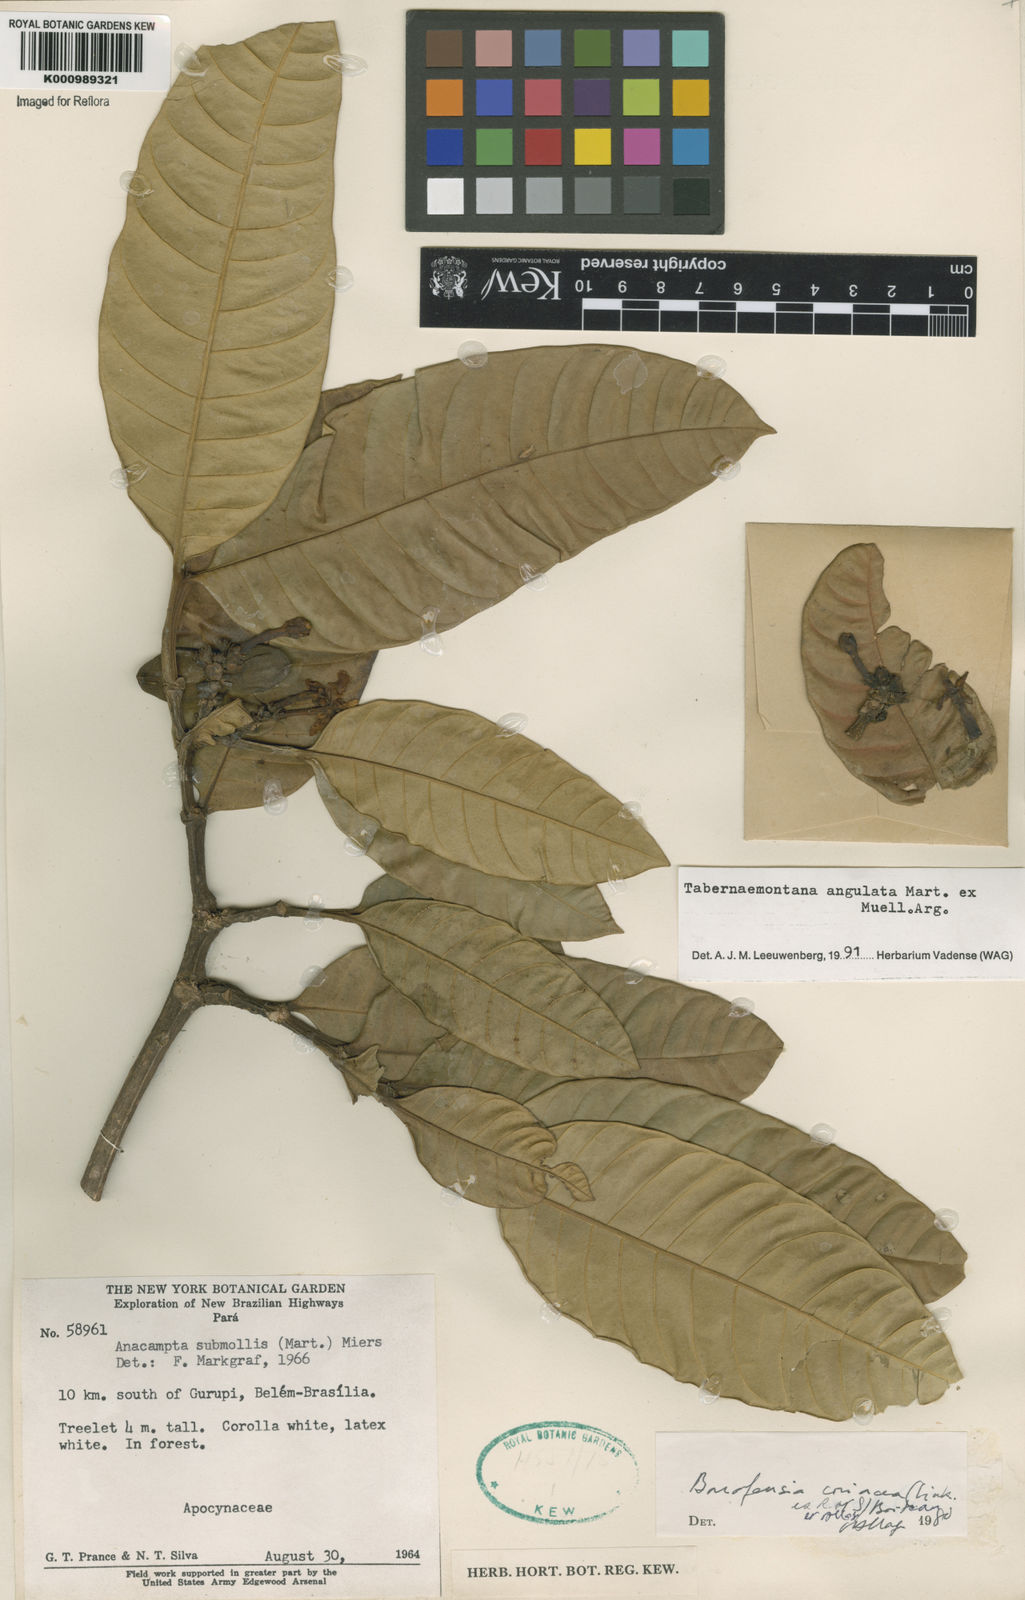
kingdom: Plantae
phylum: Tracheophyta
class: Magnoliopsida
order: Gentianales
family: Apocynaceae
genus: Tabernaemontana
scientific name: Tabernaemontana
